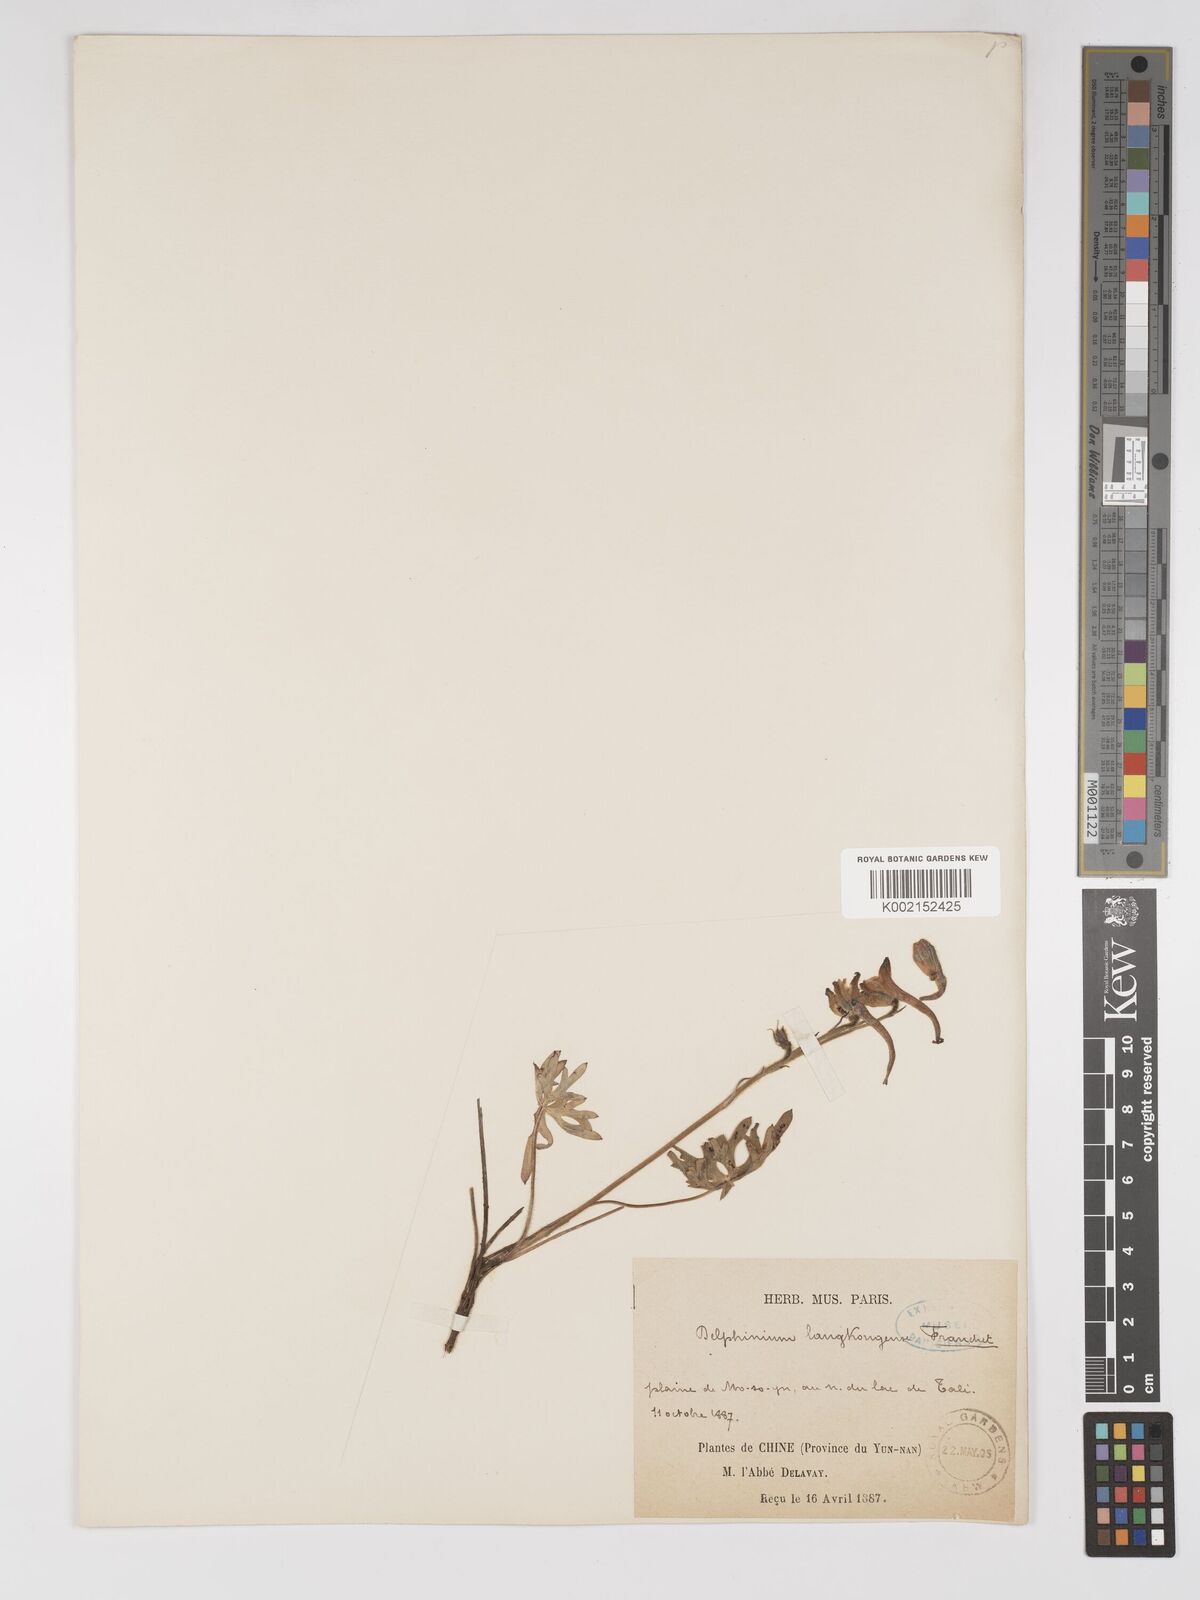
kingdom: Plantae
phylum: Tracheophyta
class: Magnoliopsida
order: Ranunculales
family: Ranunculaceae
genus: Delphinium
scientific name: Delphinium pycnocentrum
